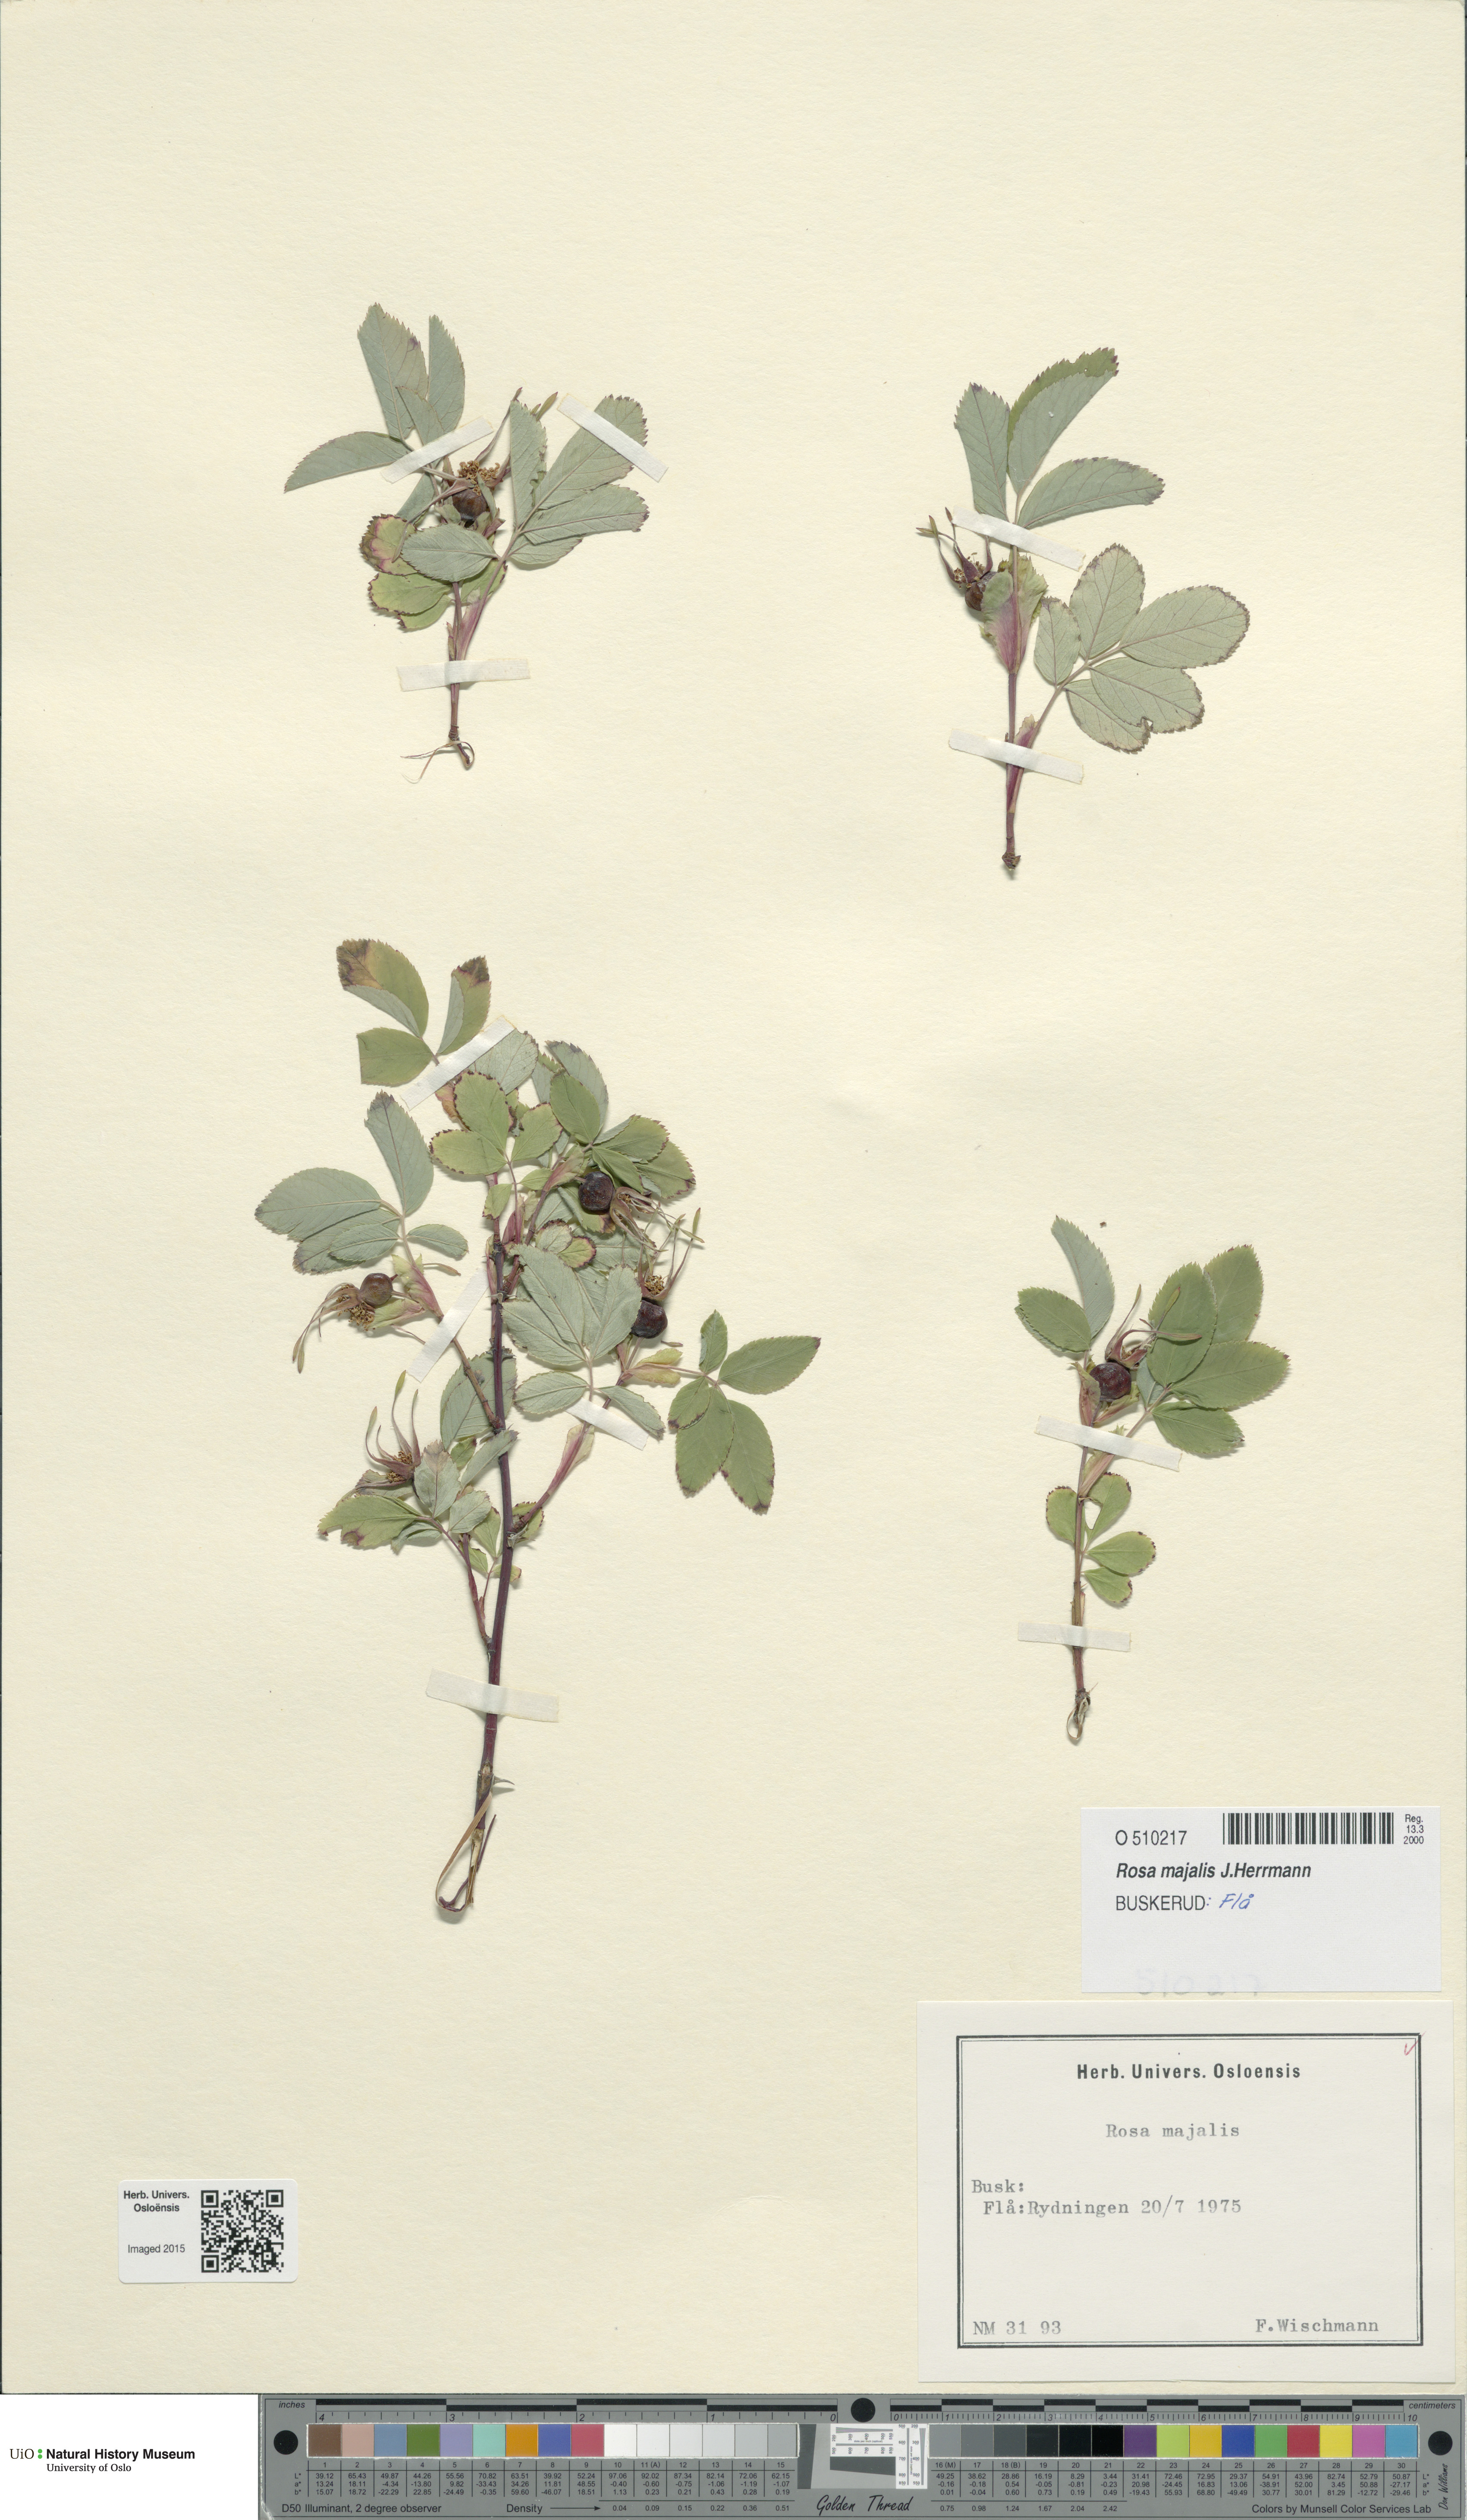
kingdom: Plantae
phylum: Tracheophyta
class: Magnoliopsida
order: Rosales
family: Rosaceae
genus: Rosa
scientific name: Rosa majalis
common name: Cinnamon rose
